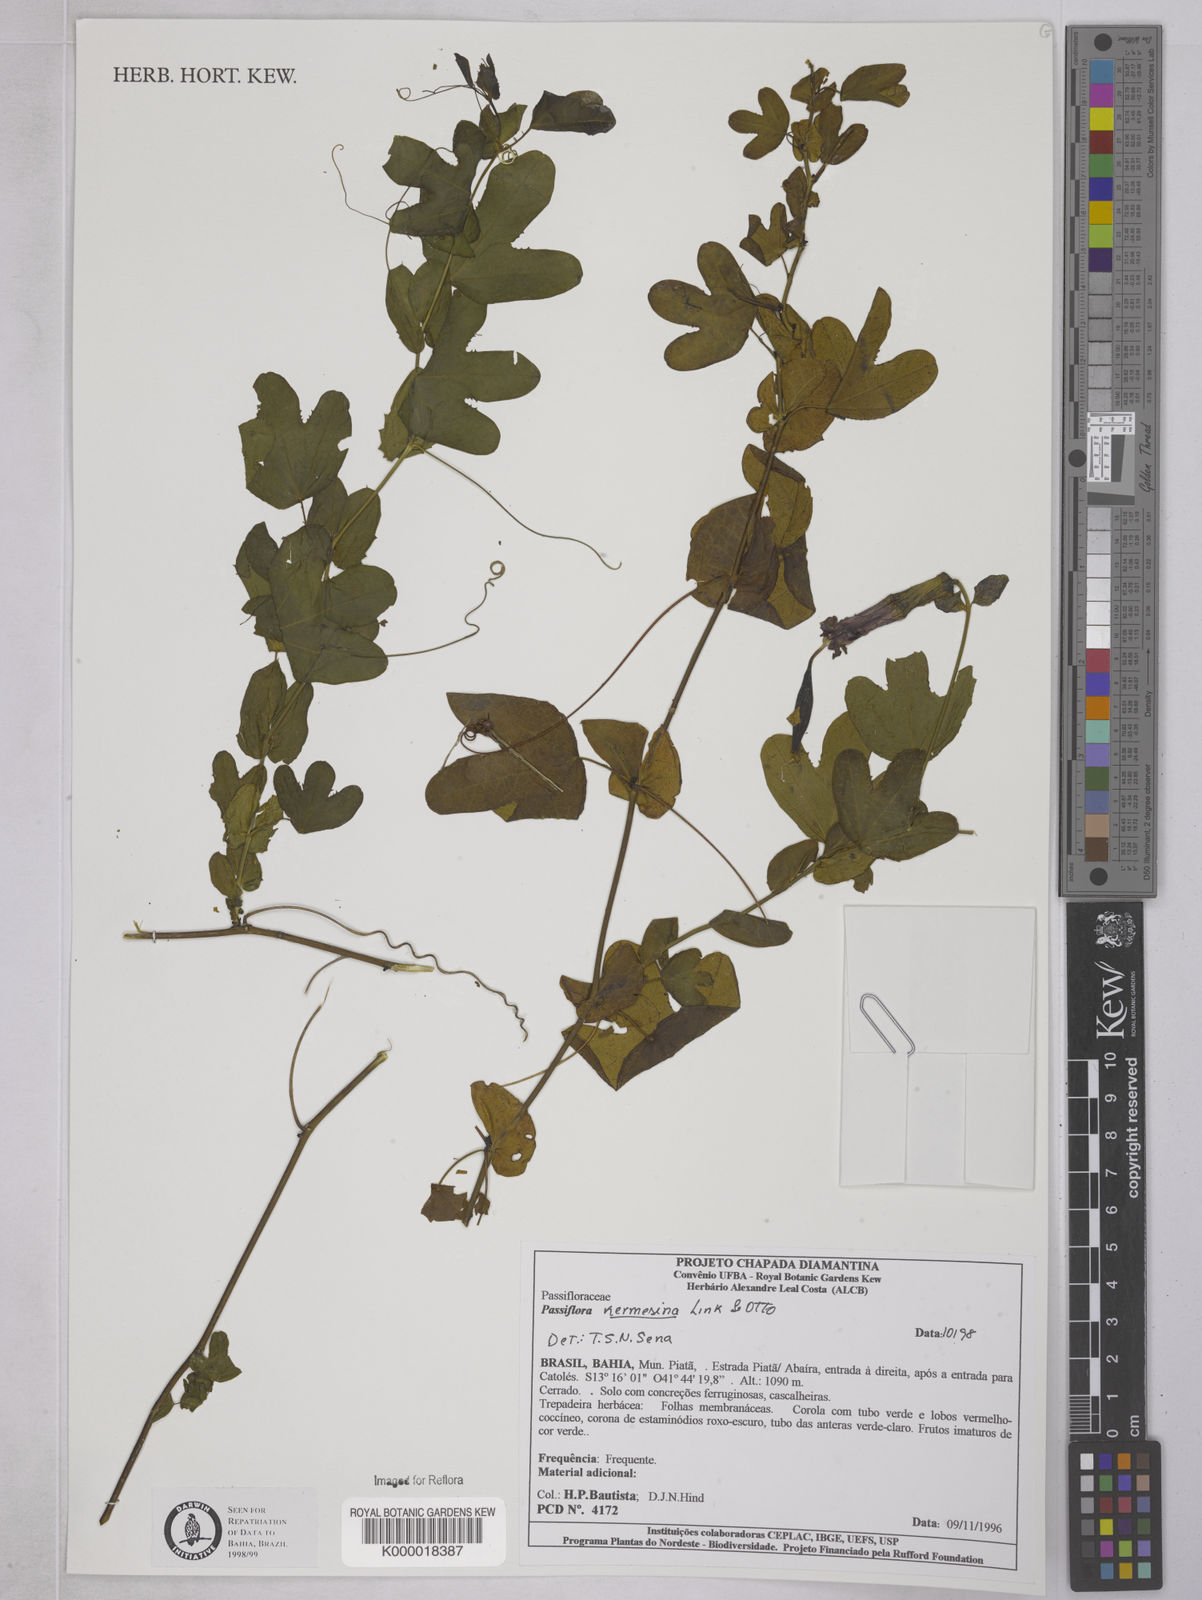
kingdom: Plantae
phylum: Tracheophyta
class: Magnoliopsida
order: Malpighiales
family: Passifloraceae
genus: Passiflora
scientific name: Passiflora kermesina
